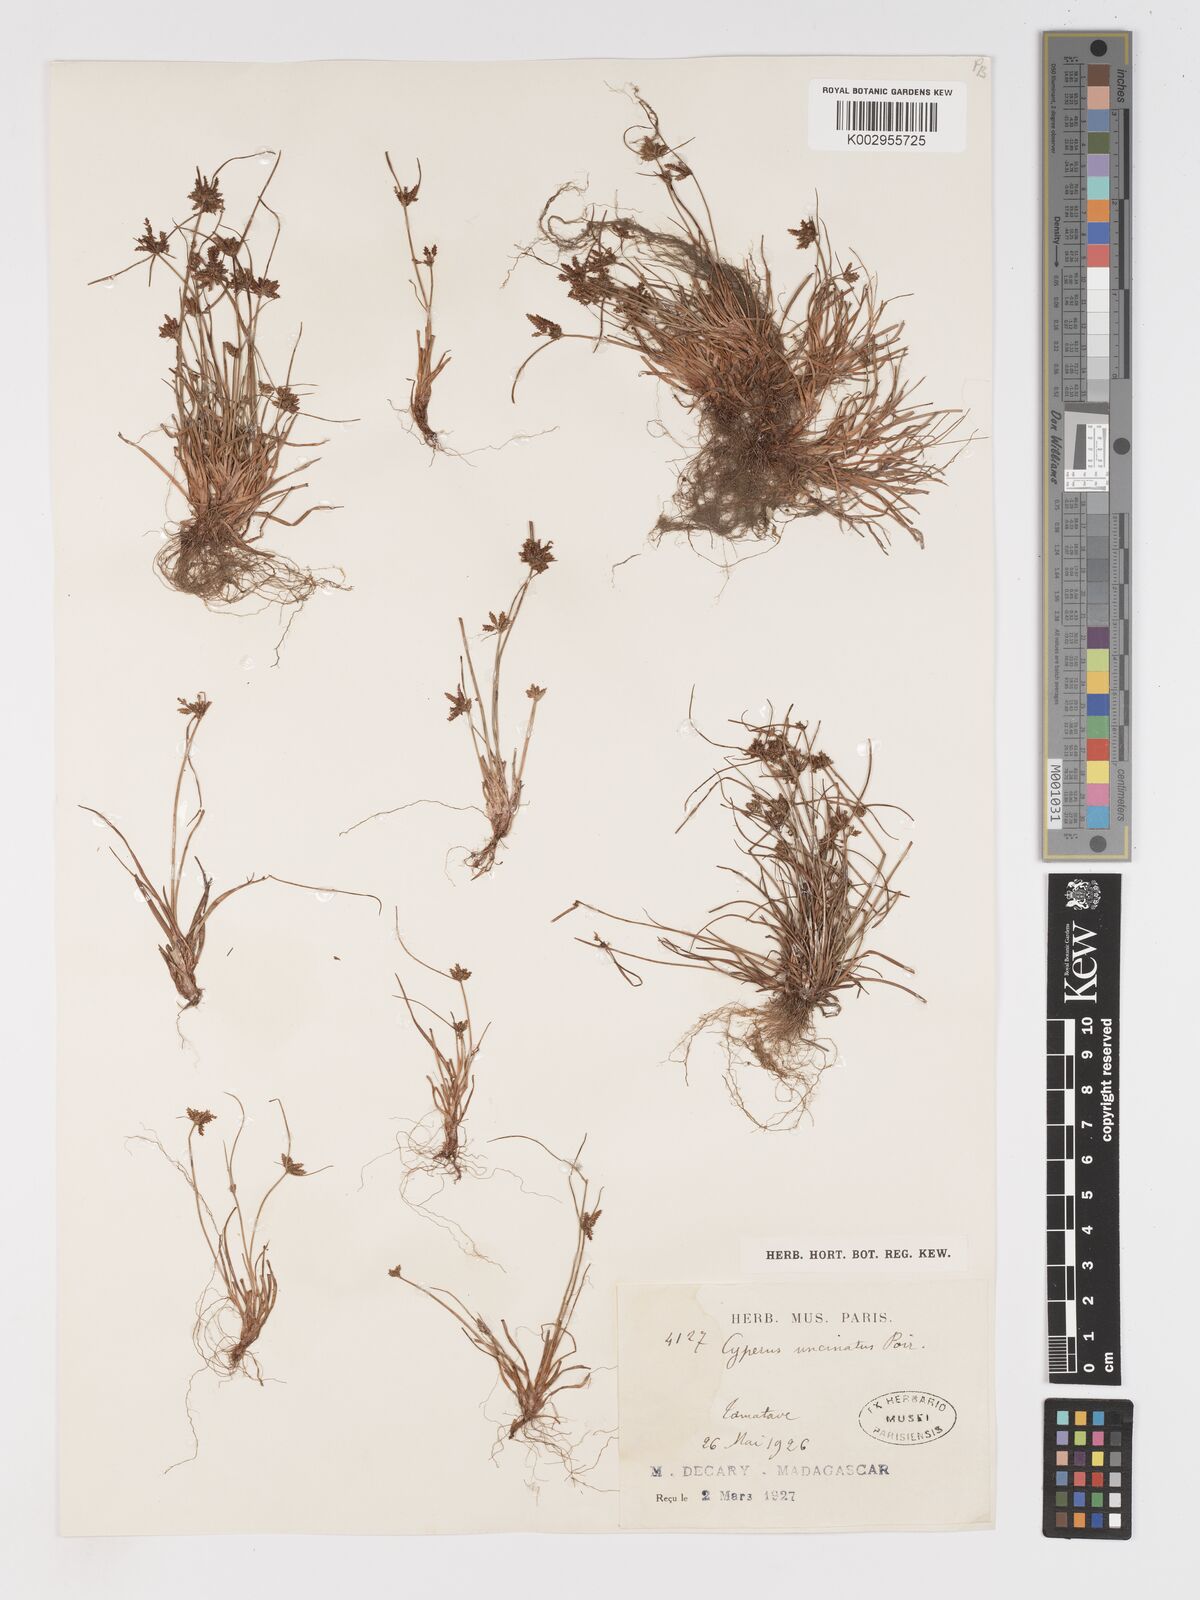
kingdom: Plantae
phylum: Tracheophyta
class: Liliopsida
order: Poales
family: Cyperaceae
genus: Cyperus
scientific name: Cyperus cuspidatus
